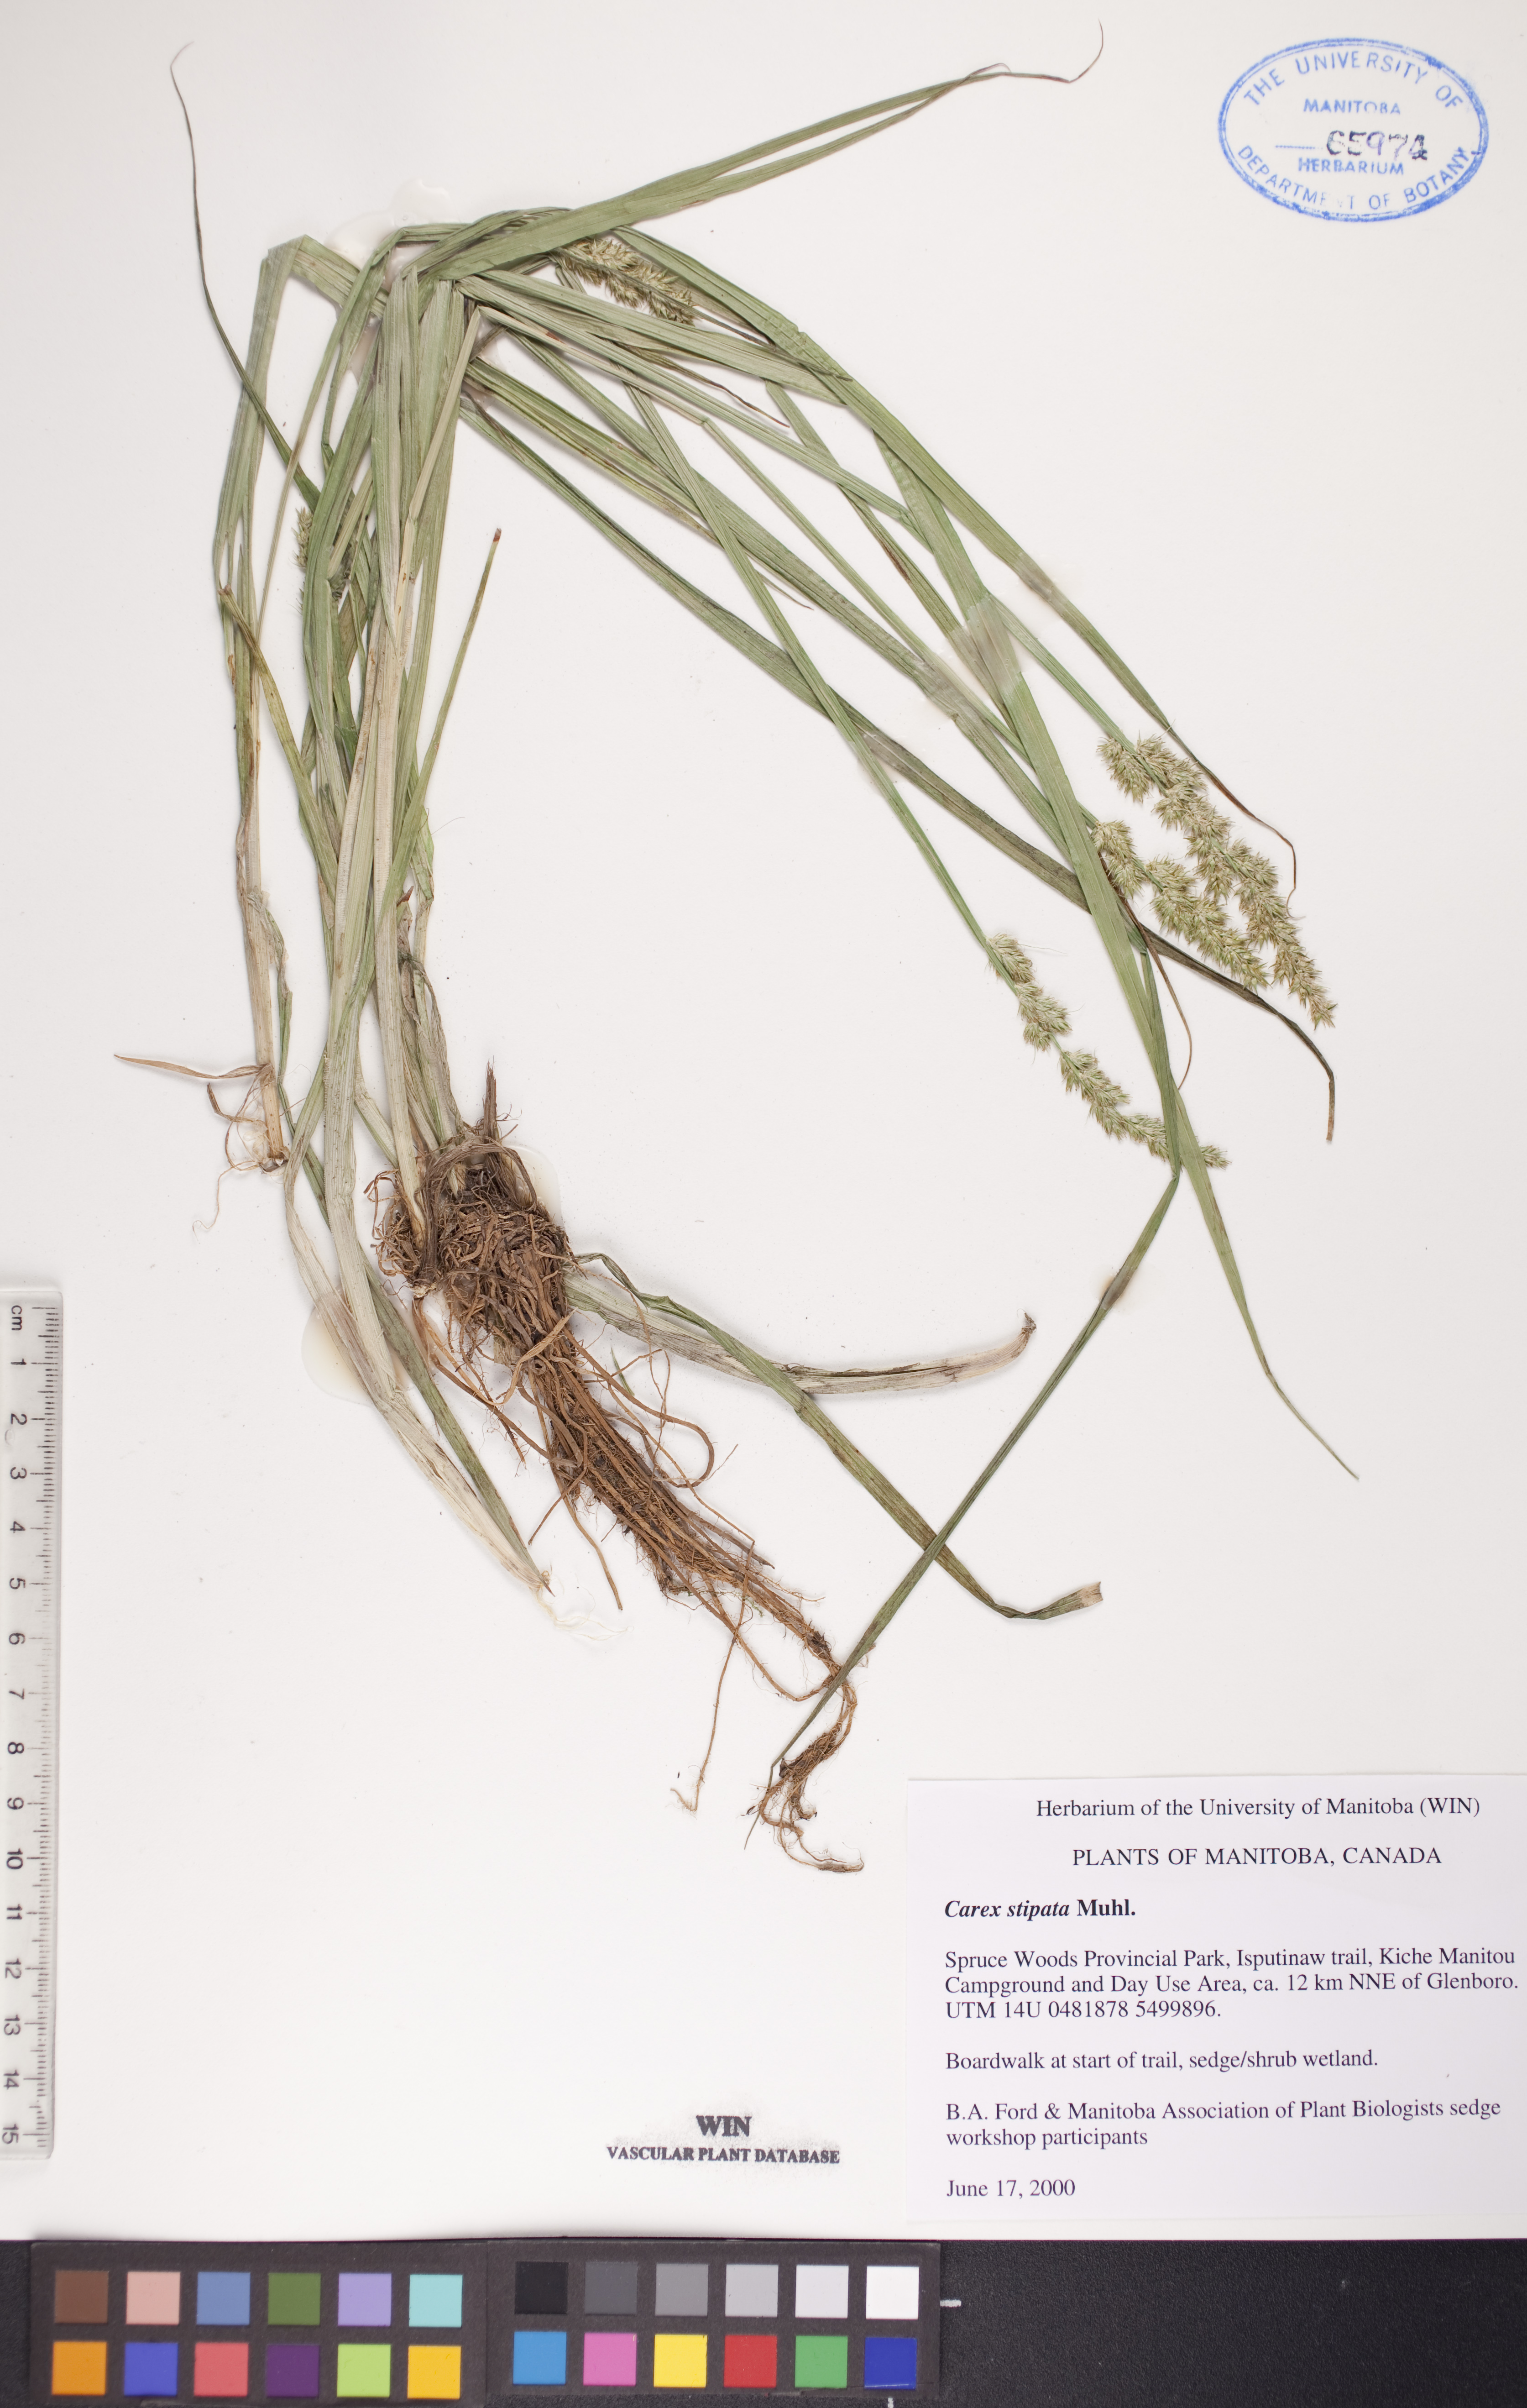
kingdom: Plantae
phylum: Tracheophyta
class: Liliopsida
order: Poales
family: Cyperaceae
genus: Carex
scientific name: Carex stipata
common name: Awl-fruited sedge
